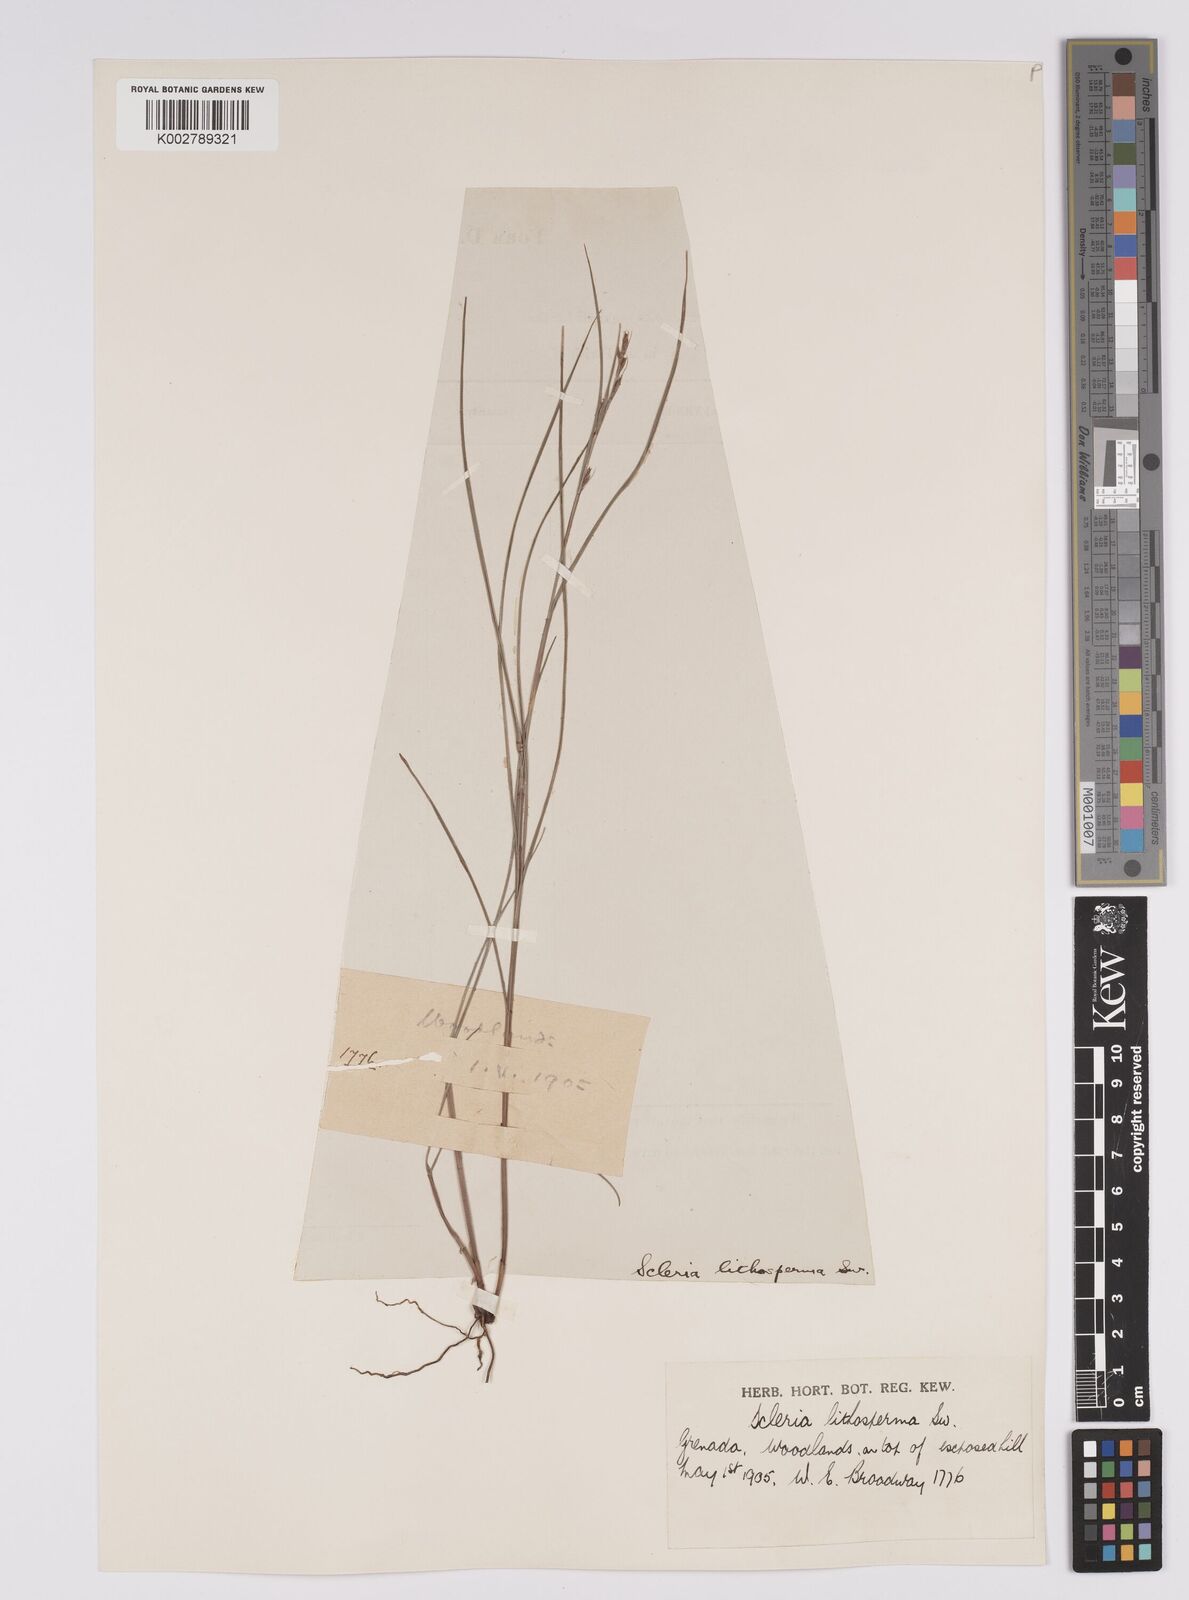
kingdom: Plantae
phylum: Tracheophyta
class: Liliopsida
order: Poales
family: Cyperaceae
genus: Scleria
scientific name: Scleria lithosperma
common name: Florida keys nut-rush
